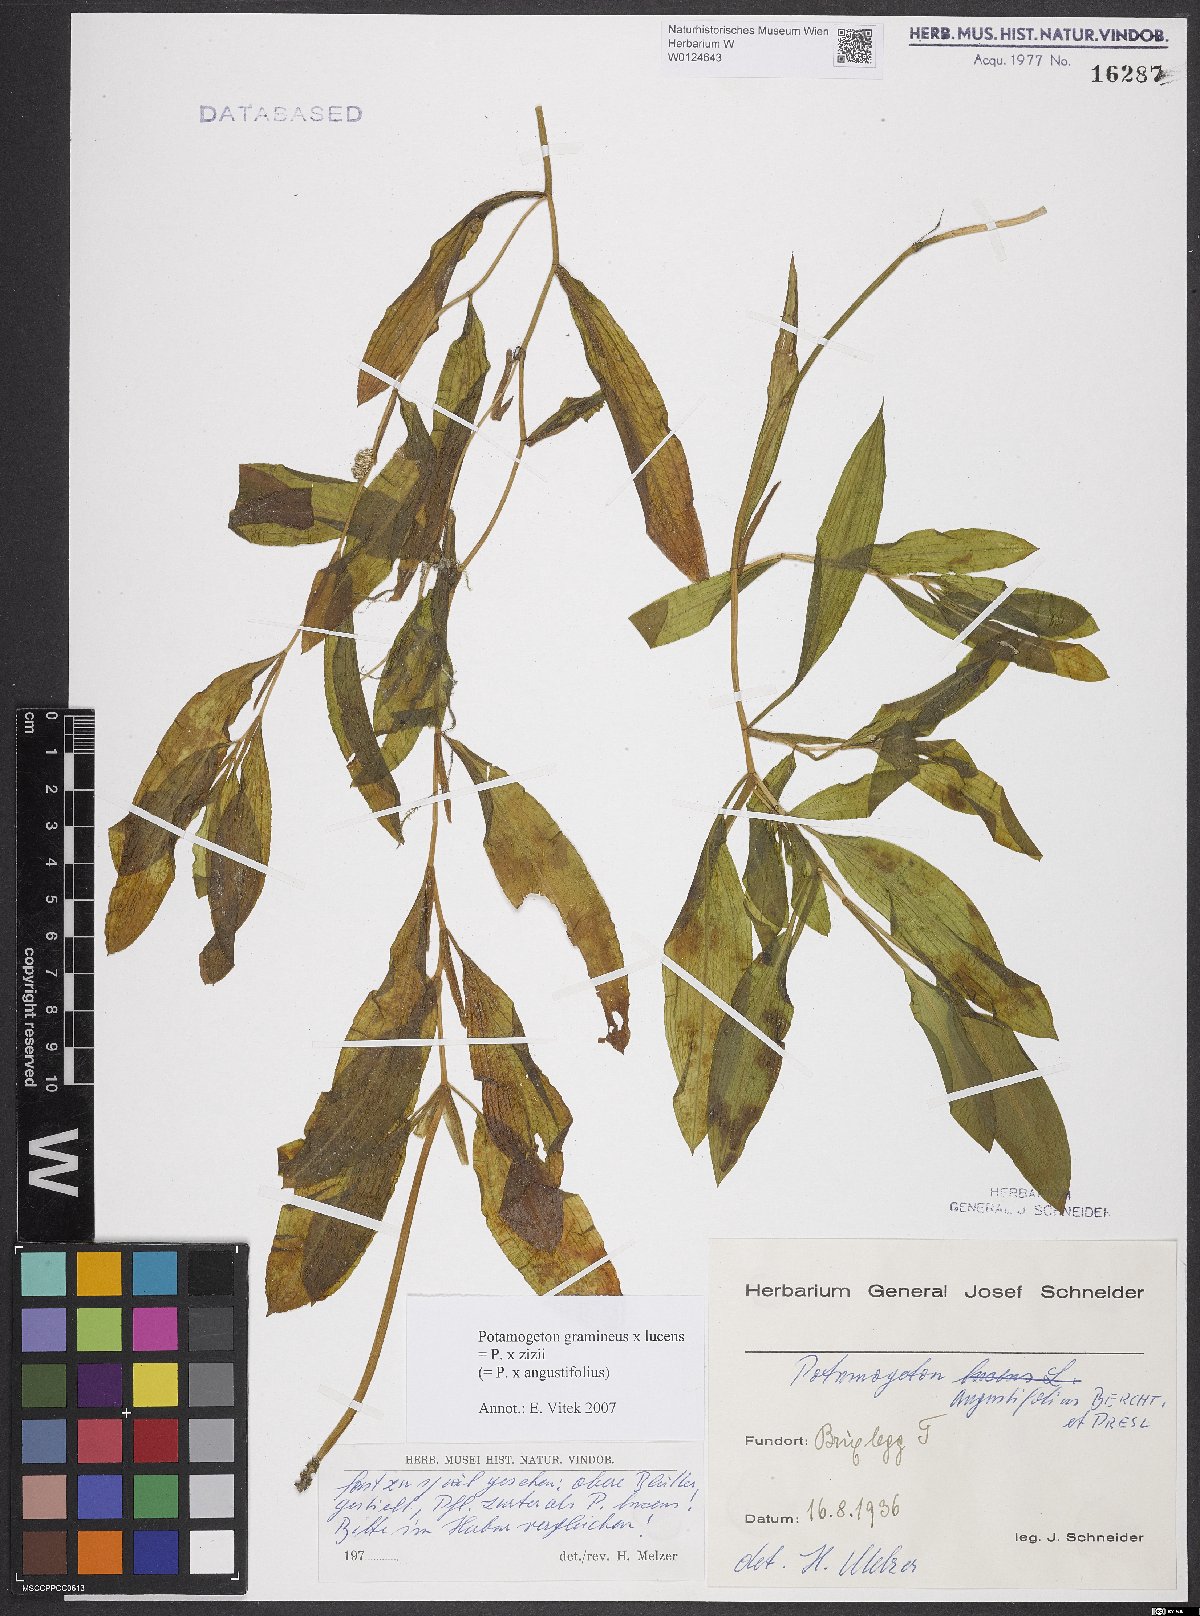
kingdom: Plantae
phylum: Tracheophyta
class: Liliopsida
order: Alismatales
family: Potamogetonaceae
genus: Potamogeton
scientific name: Potamogeton angustifolius
